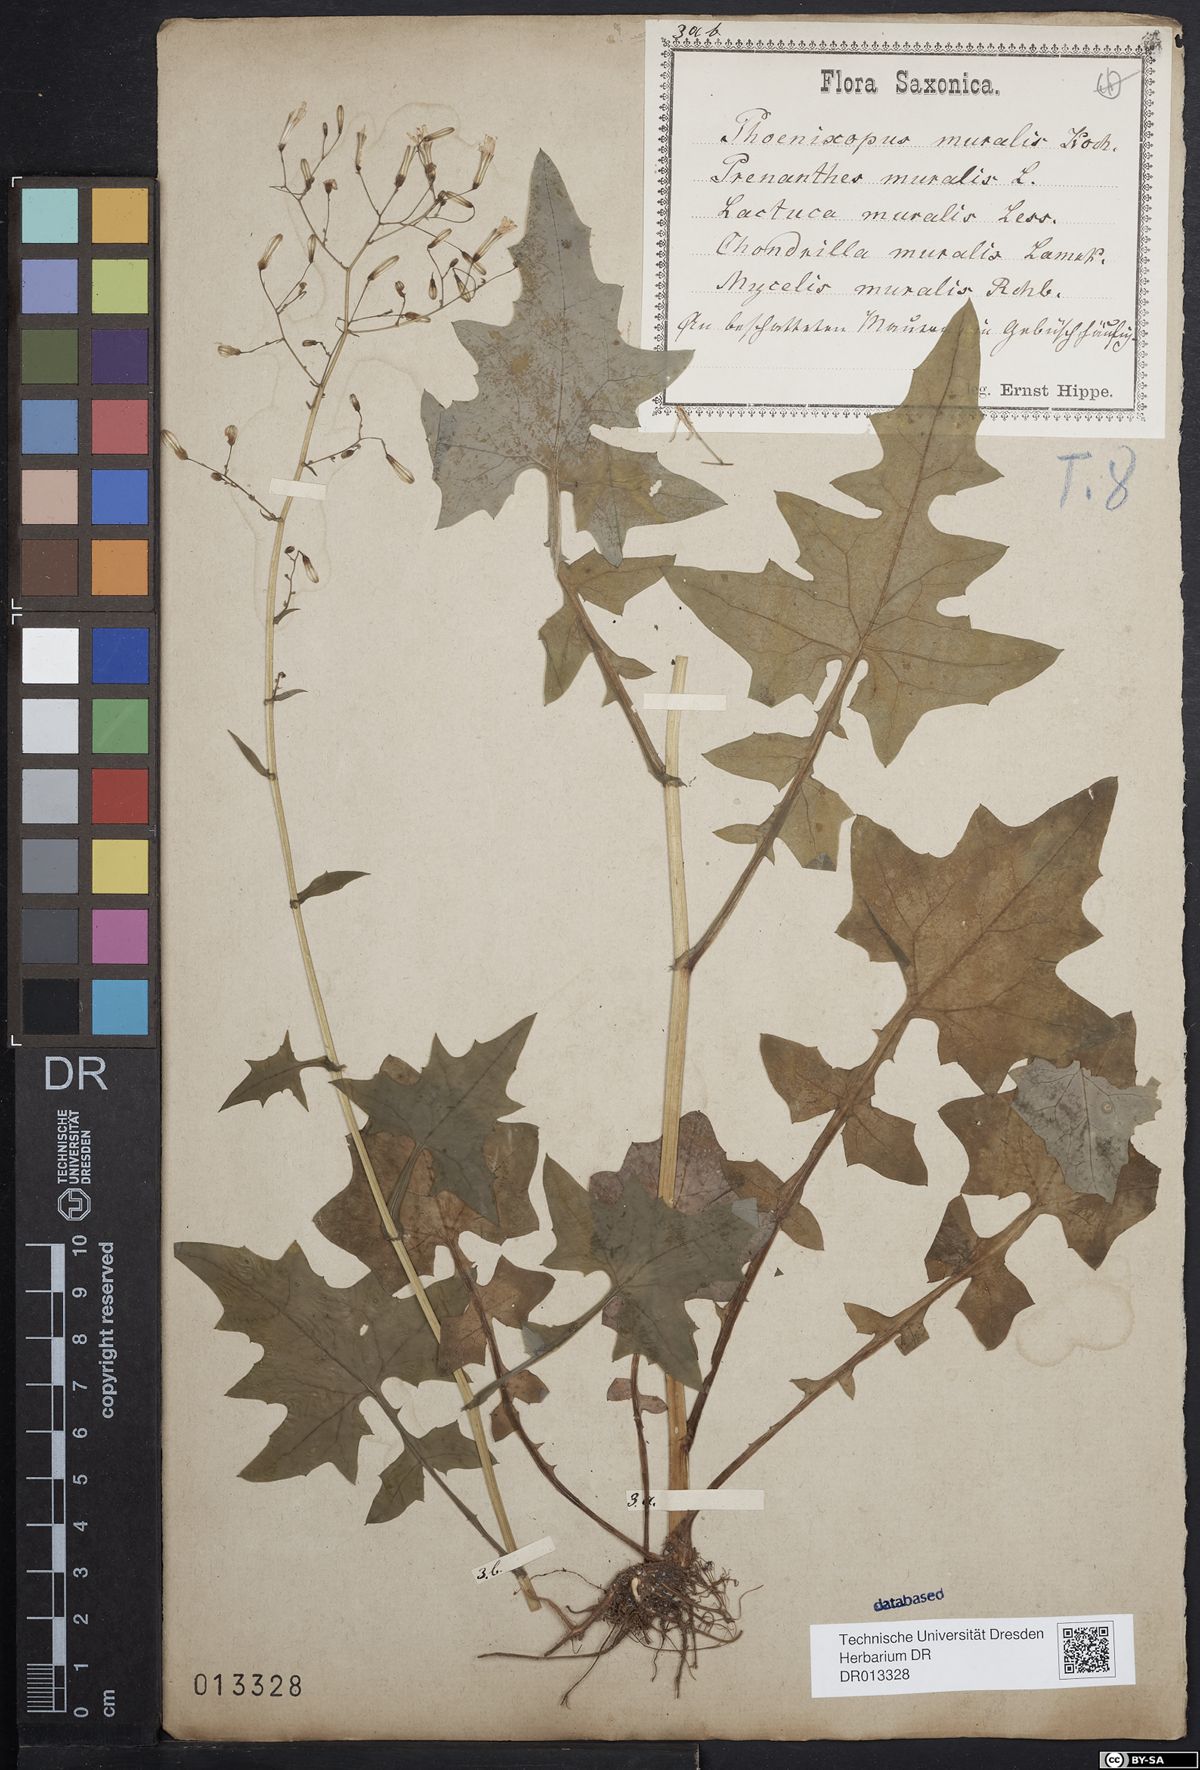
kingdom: Plantae
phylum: Tracheophyta
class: Magnoliopsida
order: Asterales
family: Asteraceae
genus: Mycelis
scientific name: Mycelis muralis
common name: Wall lettuce
